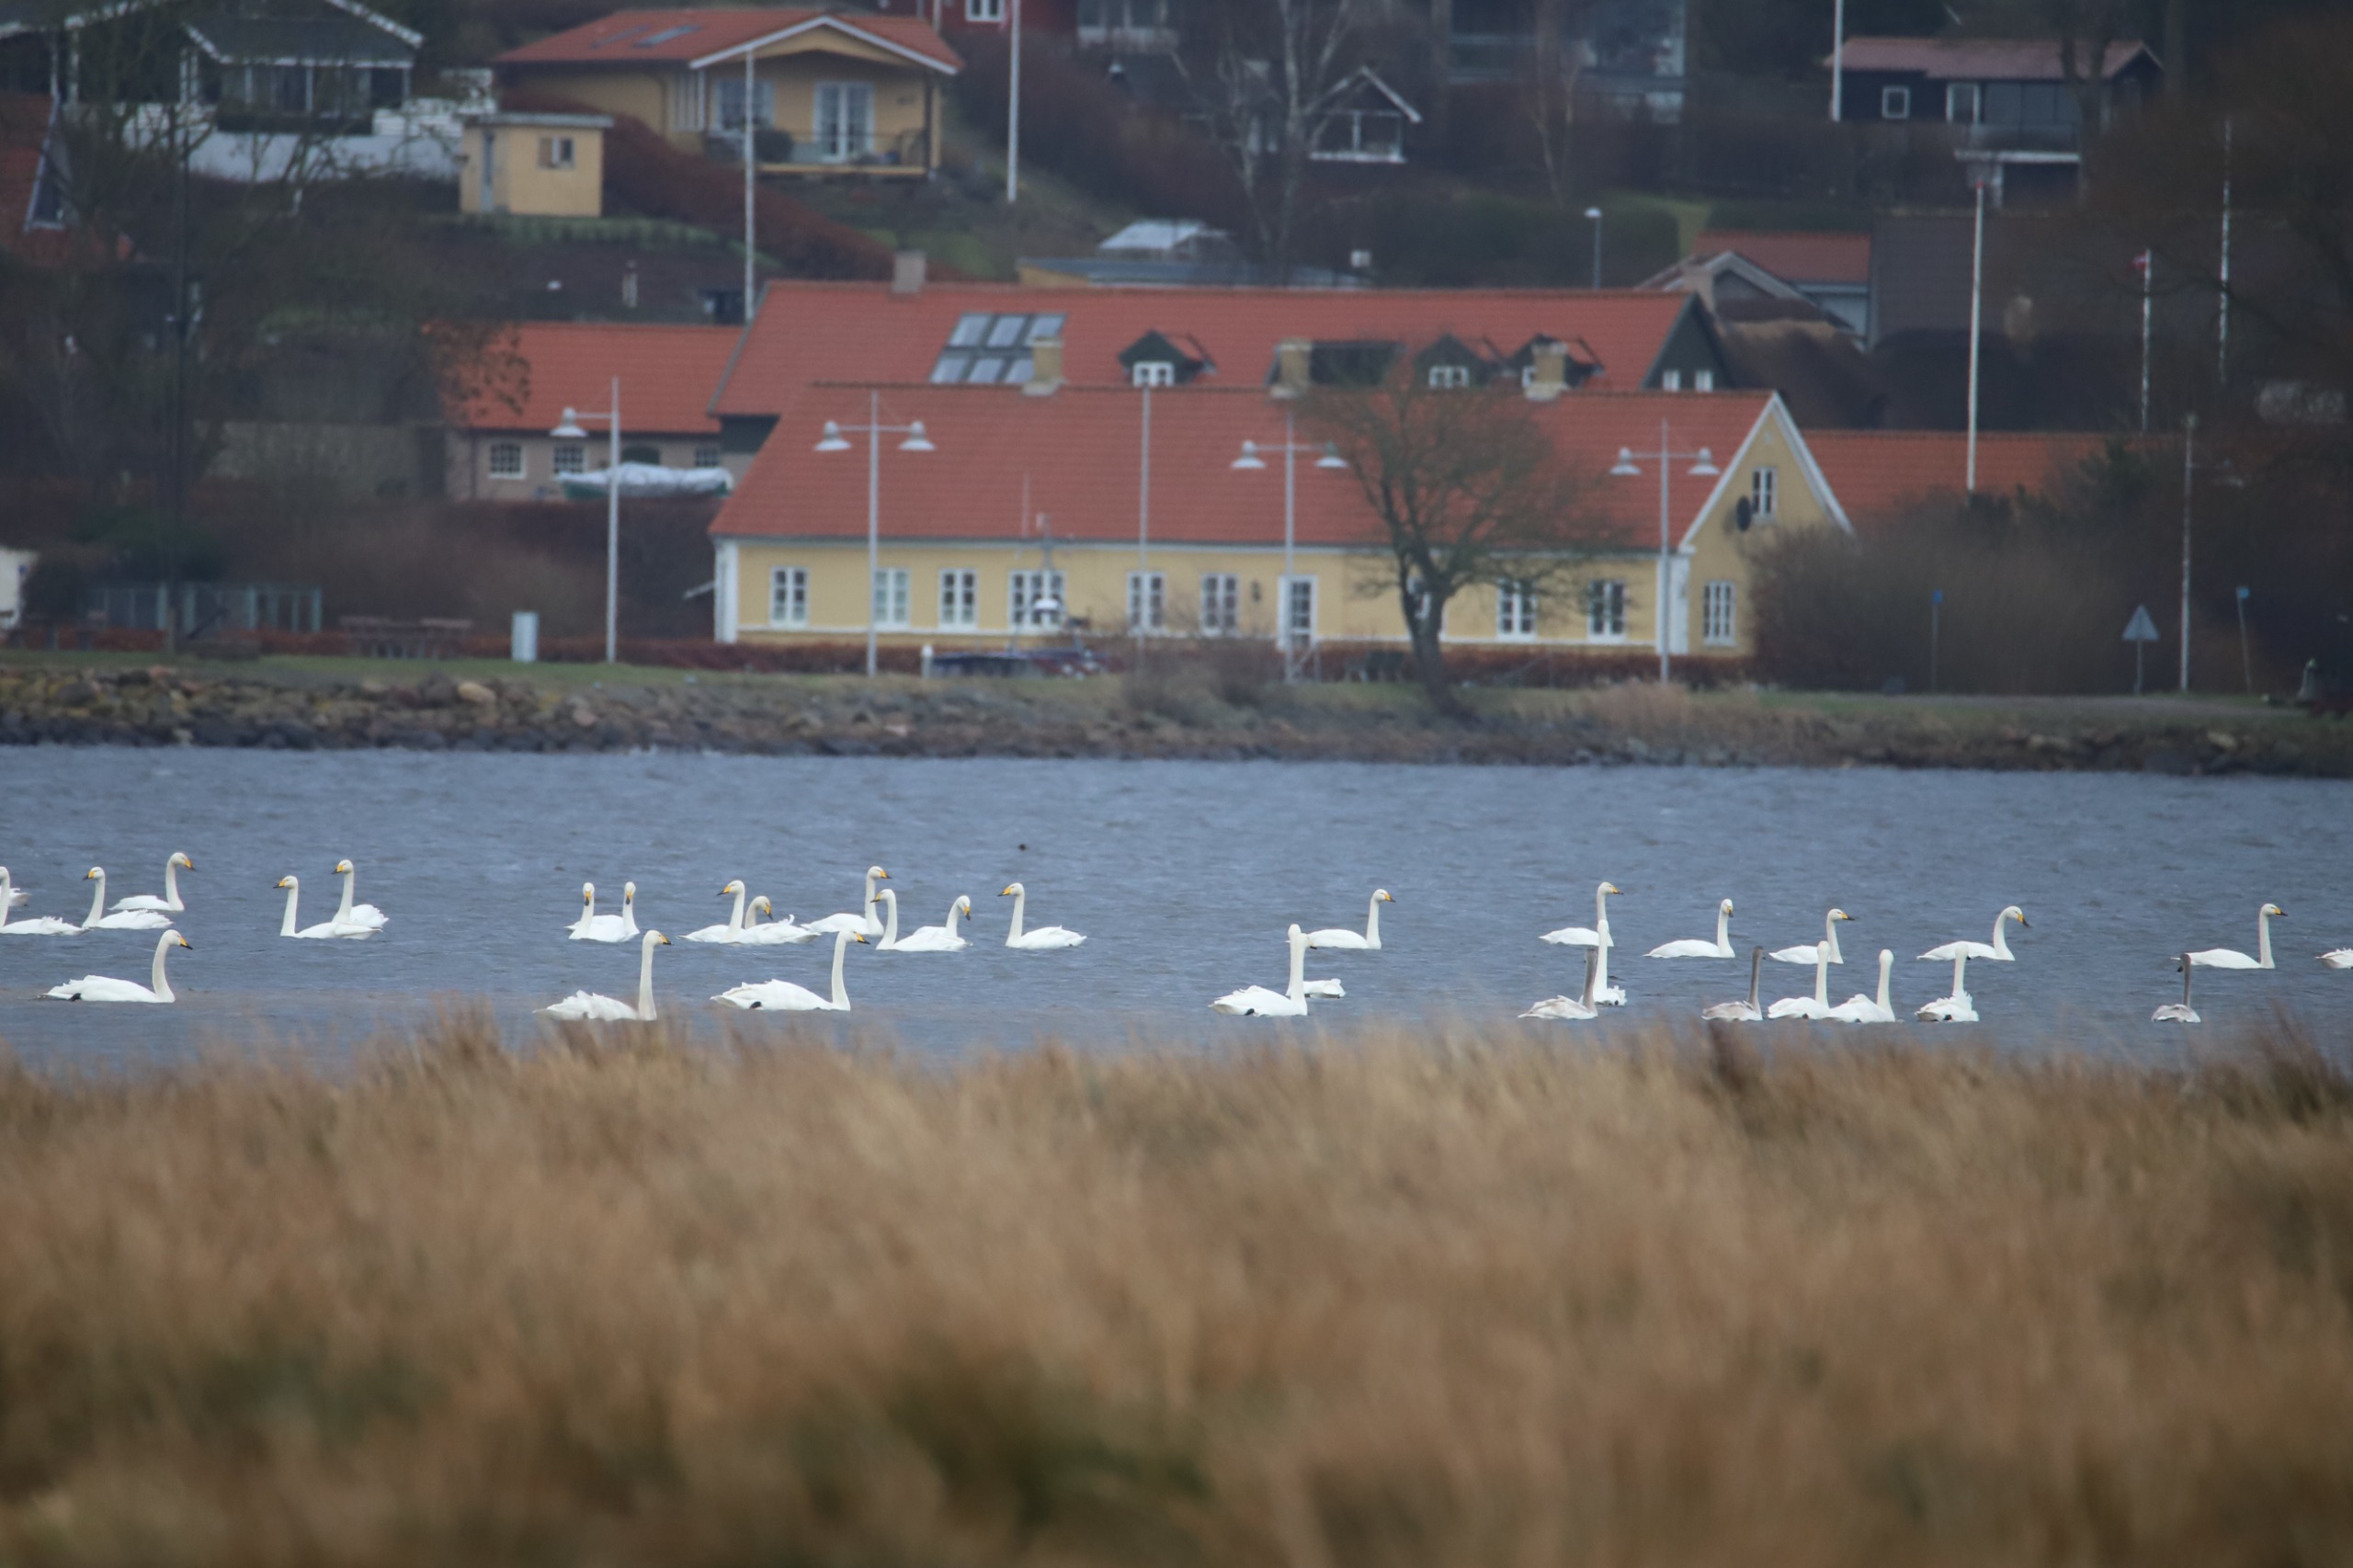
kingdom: Animalia
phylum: Chordata
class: Aves
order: Anseriformes
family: Anatidae
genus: Cygnus
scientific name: Cygnus cygnus
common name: Sangsvane
